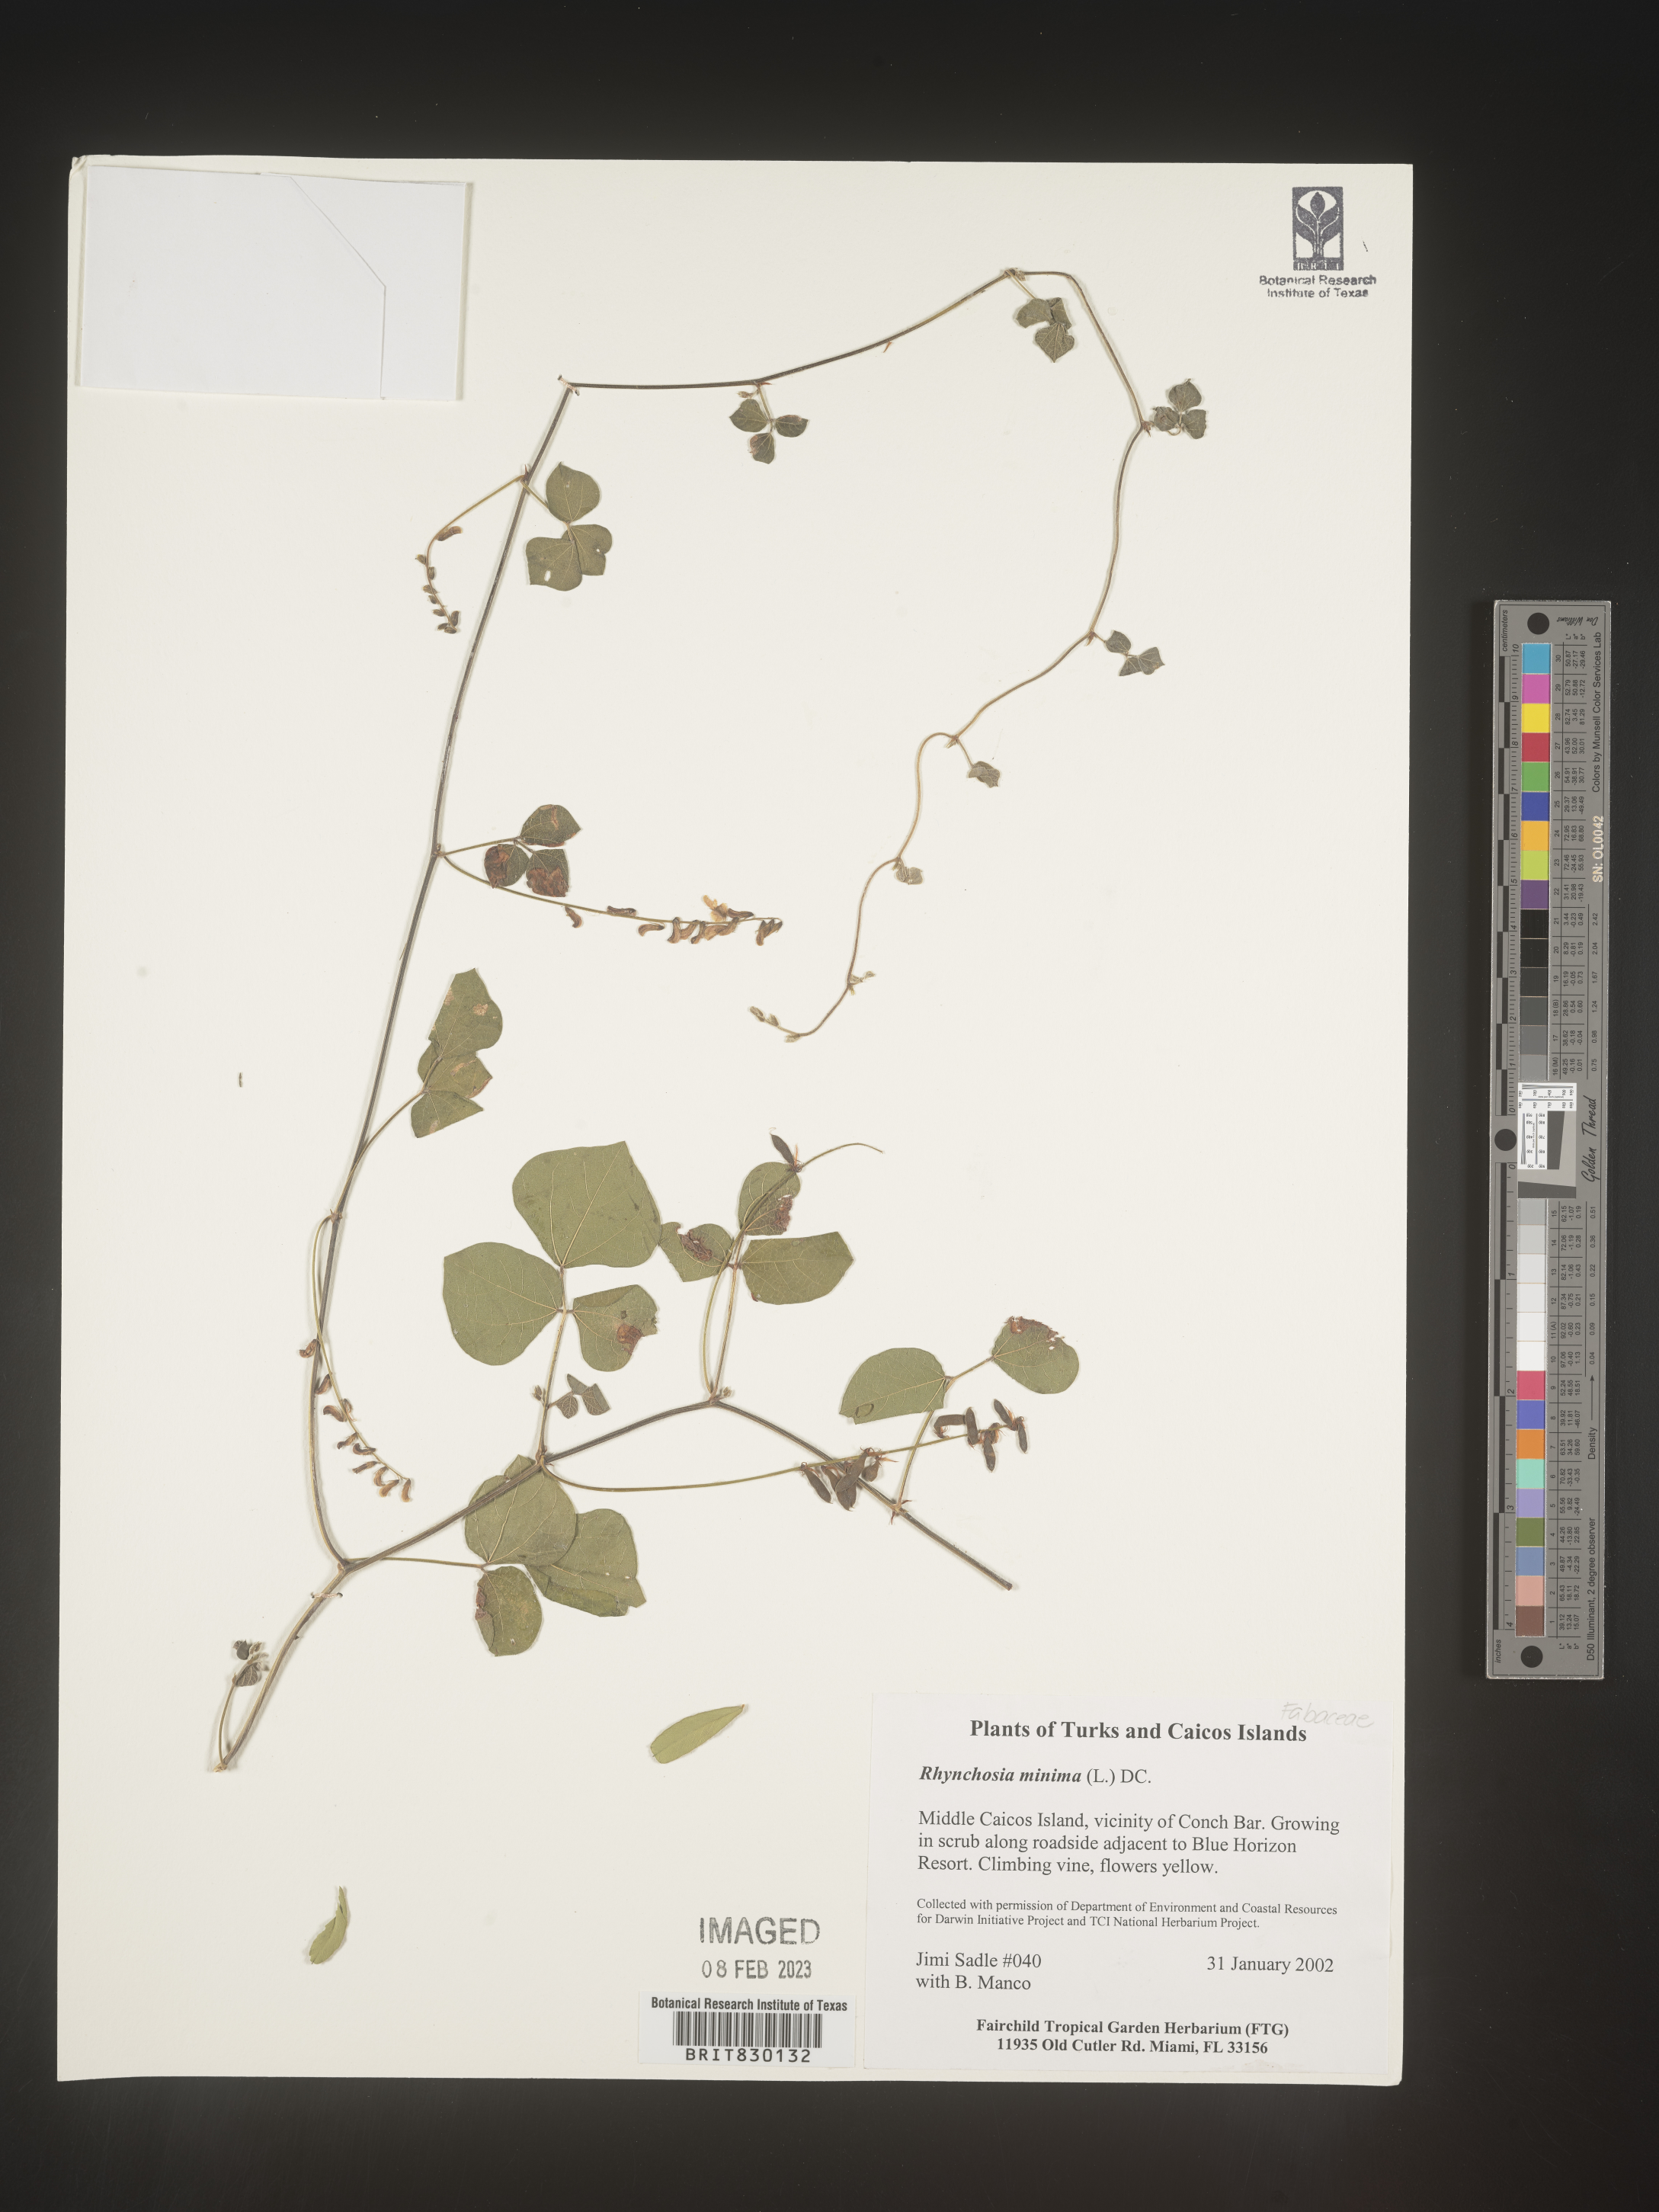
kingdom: Plantae
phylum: Tracheophyta
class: Magnoliopsida
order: Fabales
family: Fabaceae
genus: Rhynchosia
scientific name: Rhynchosia
